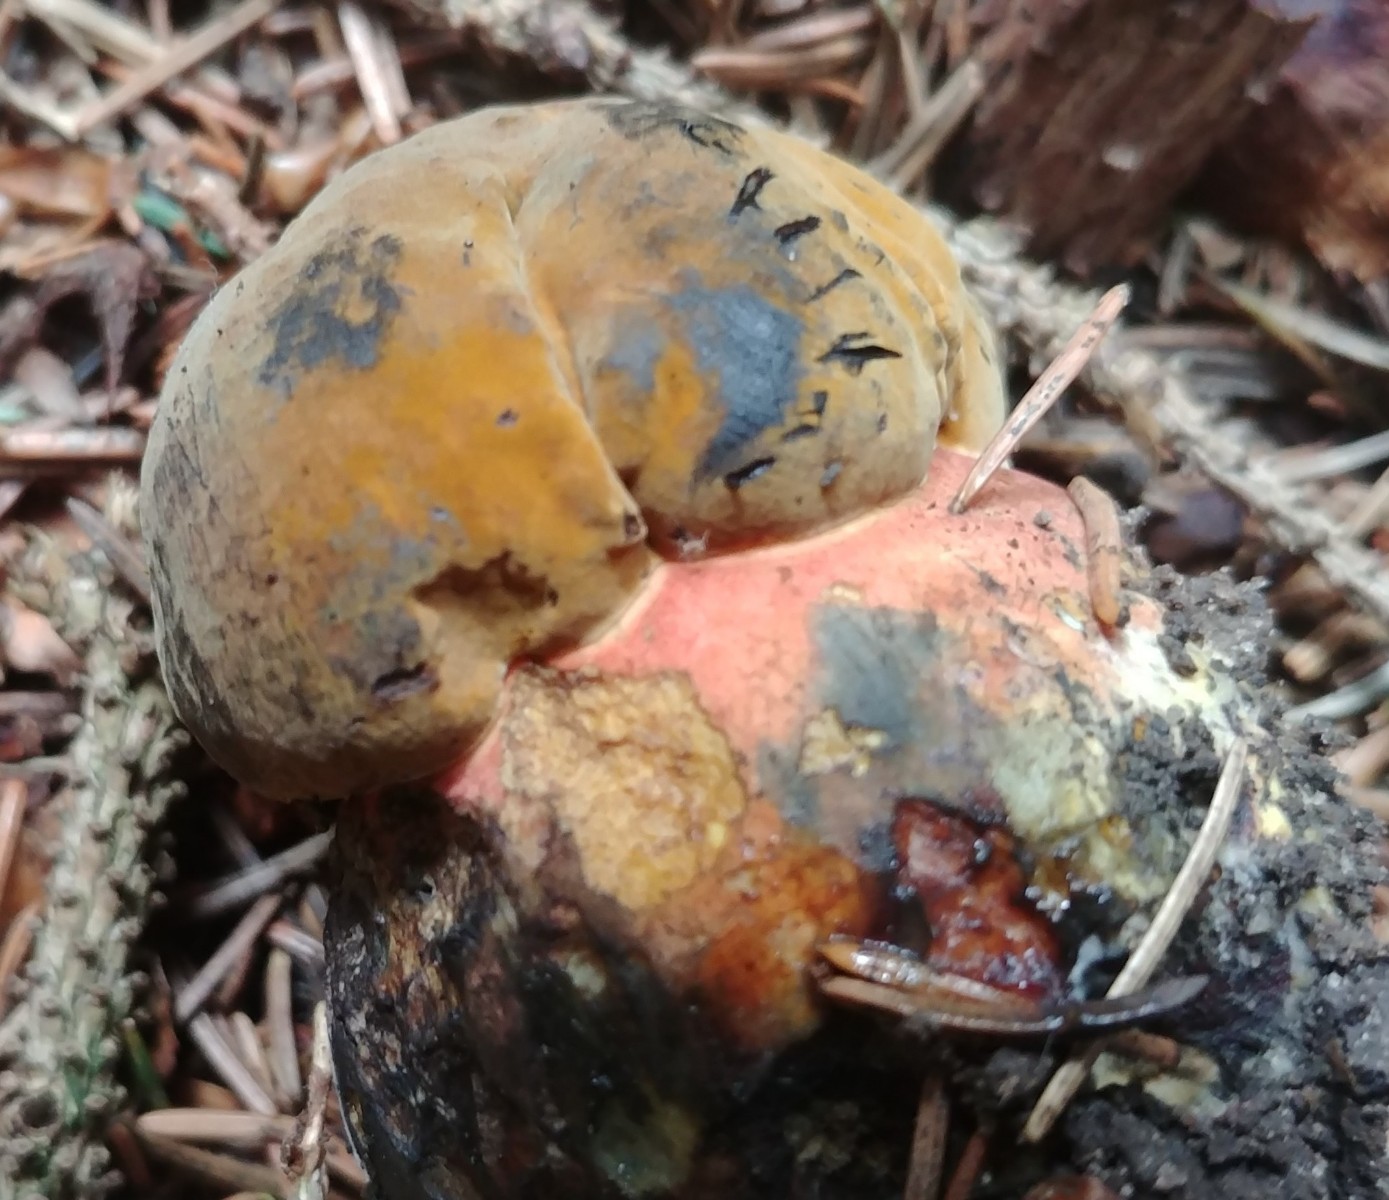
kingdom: Fungi
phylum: Basidiomycota
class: Agaricomycetes
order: Boletales
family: Boletaceae
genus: Neoboletus
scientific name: Neoboletus erythropus
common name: punktstokket indigorørhat
